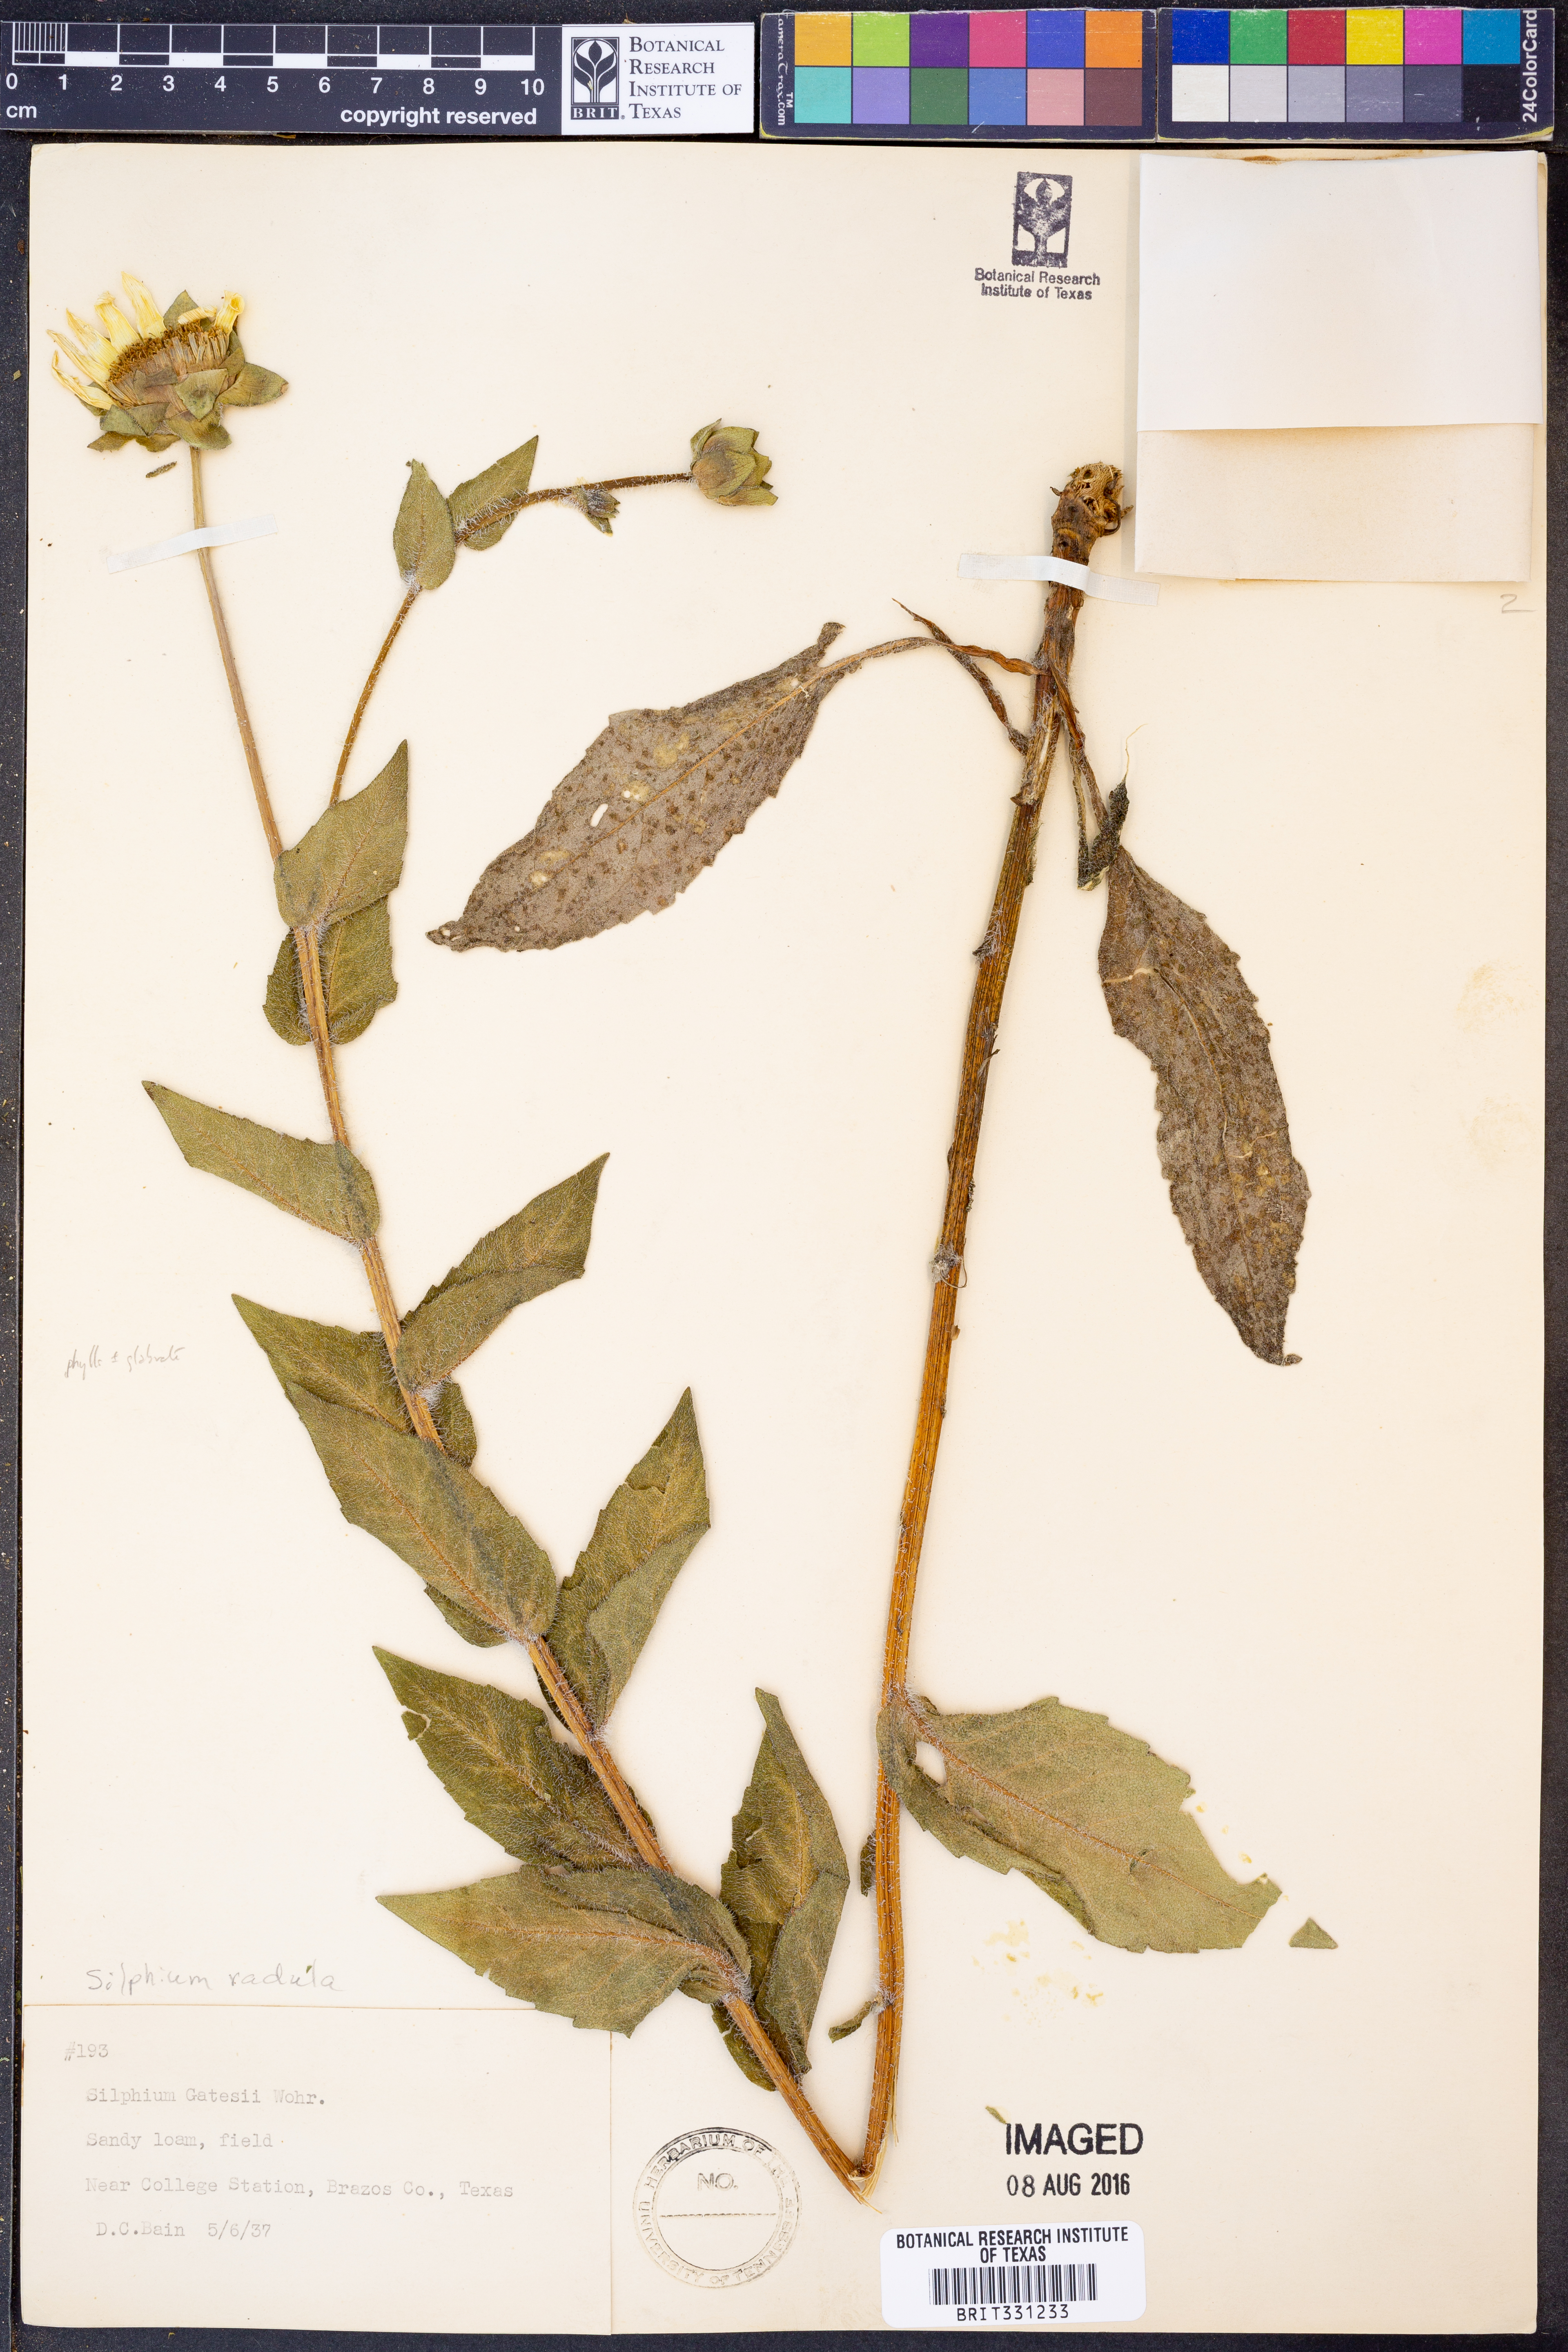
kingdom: Plantae
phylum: Tracheophyta
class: Magnoliopsida
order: Asterales
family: Asteraceae
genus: Silphium
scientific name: Silphium radula
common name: Roughleaf rosinweed
